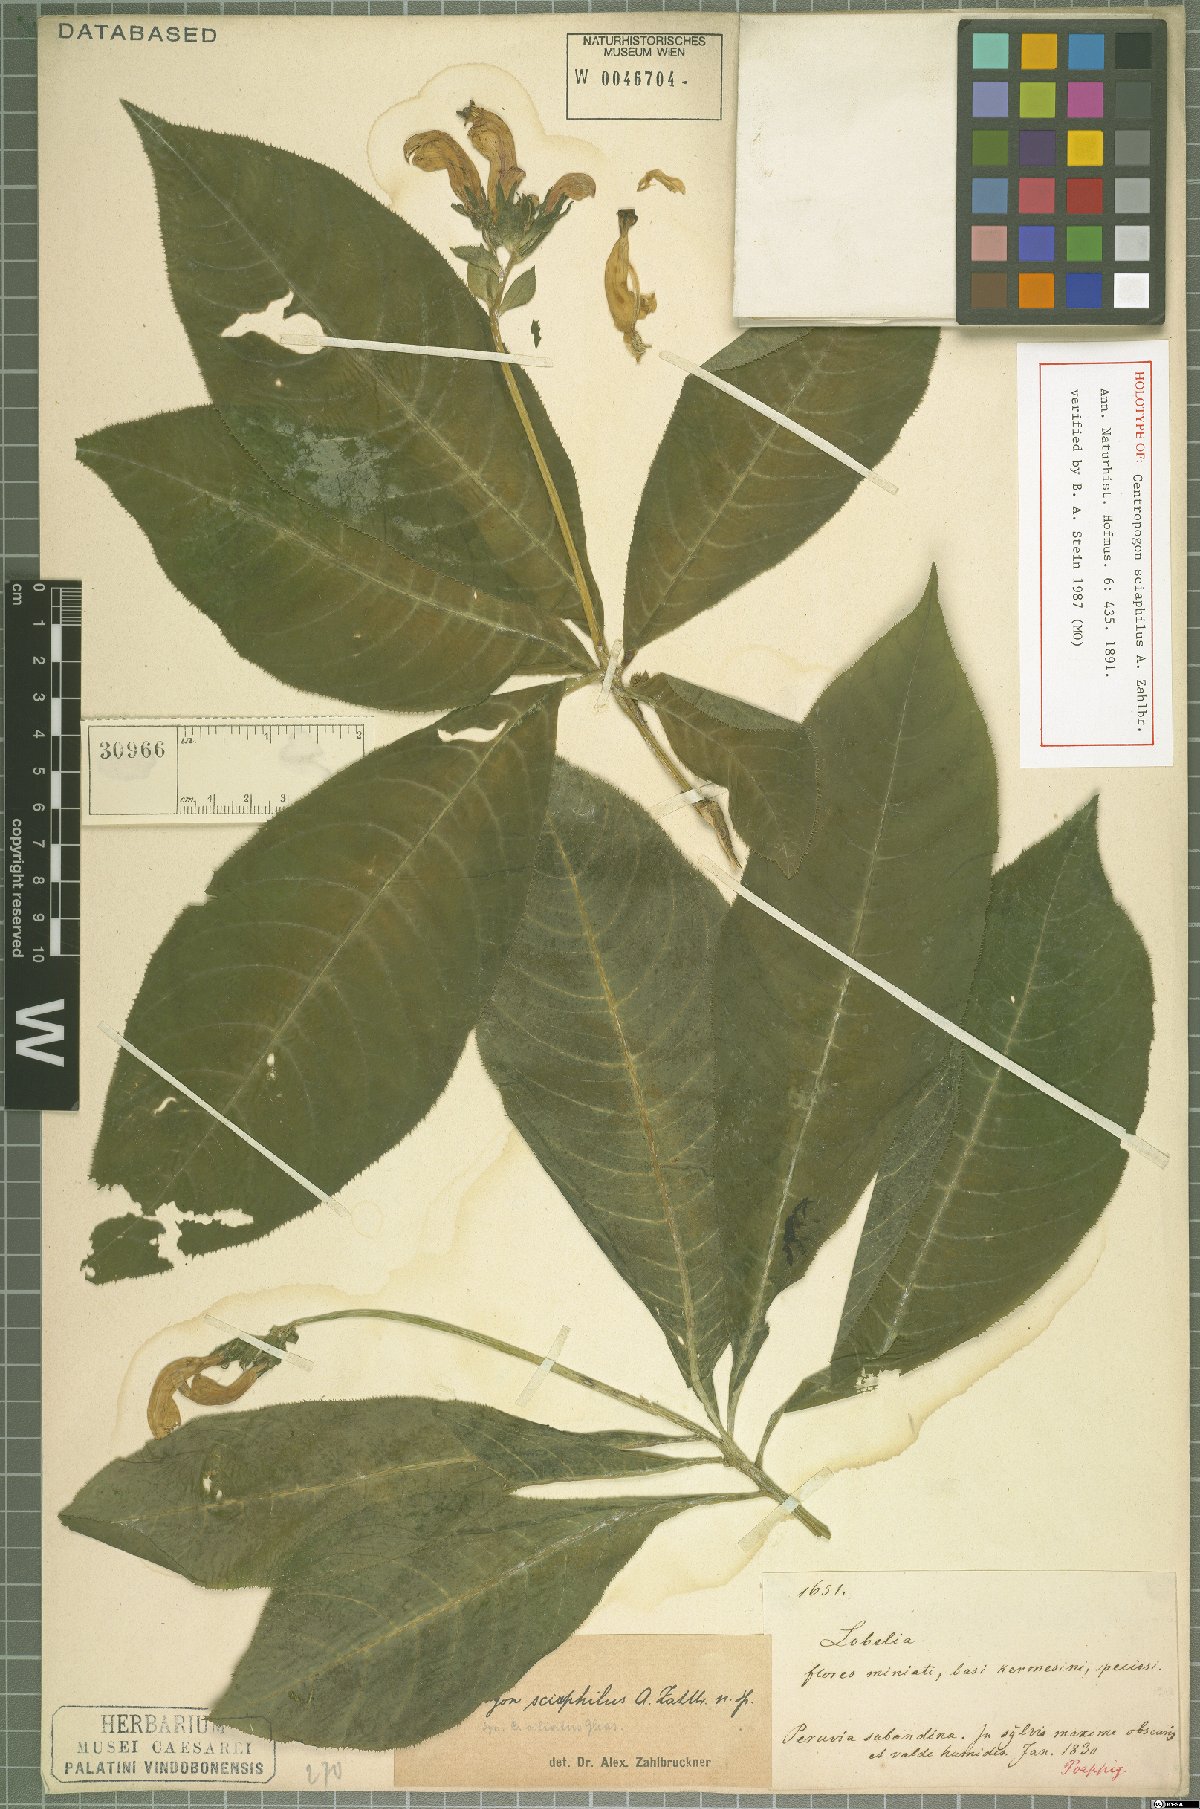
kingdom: Plantae
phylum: Tracheophyta
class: Magnoliopsida
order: Asterales
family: Campanulaceae
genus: Centropogon
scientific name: Centropogon sciaphilus
